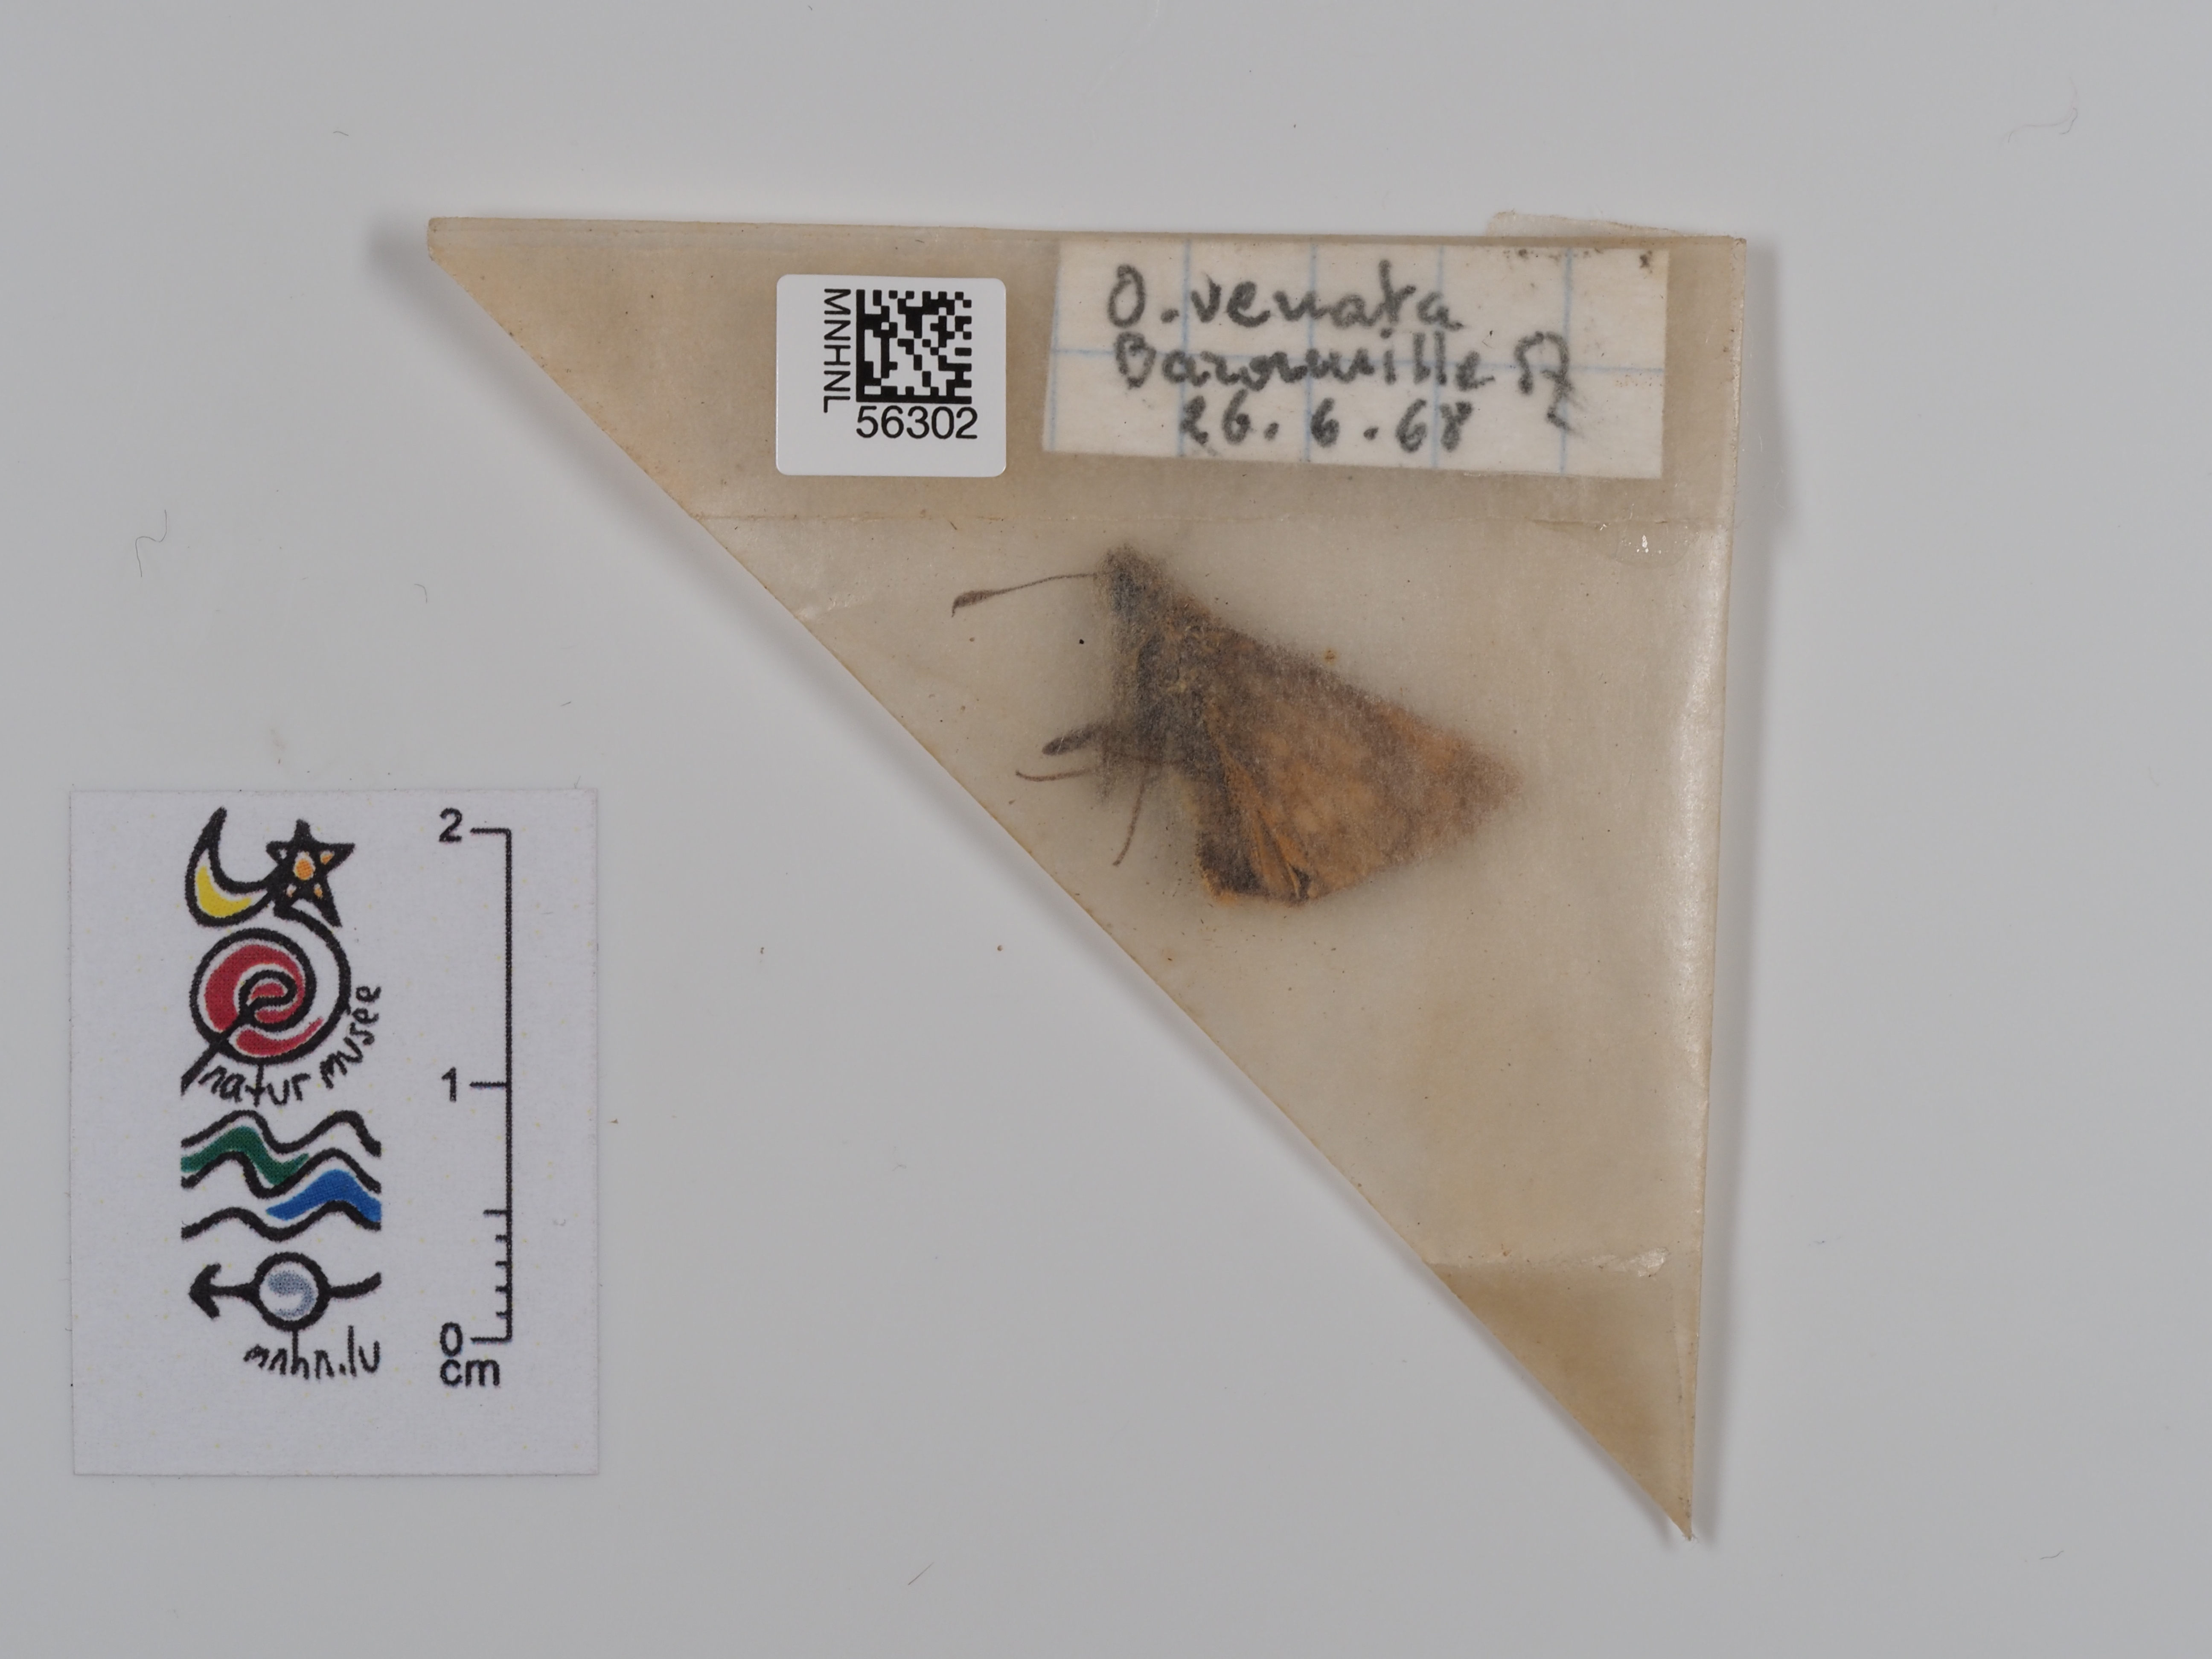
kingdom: Animalia
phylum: Arthropoda
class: Insecta
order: Lepidoptera
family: Hesperiidae
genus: Ochlodes
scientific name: Ochlodes venata
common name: Large skipper
